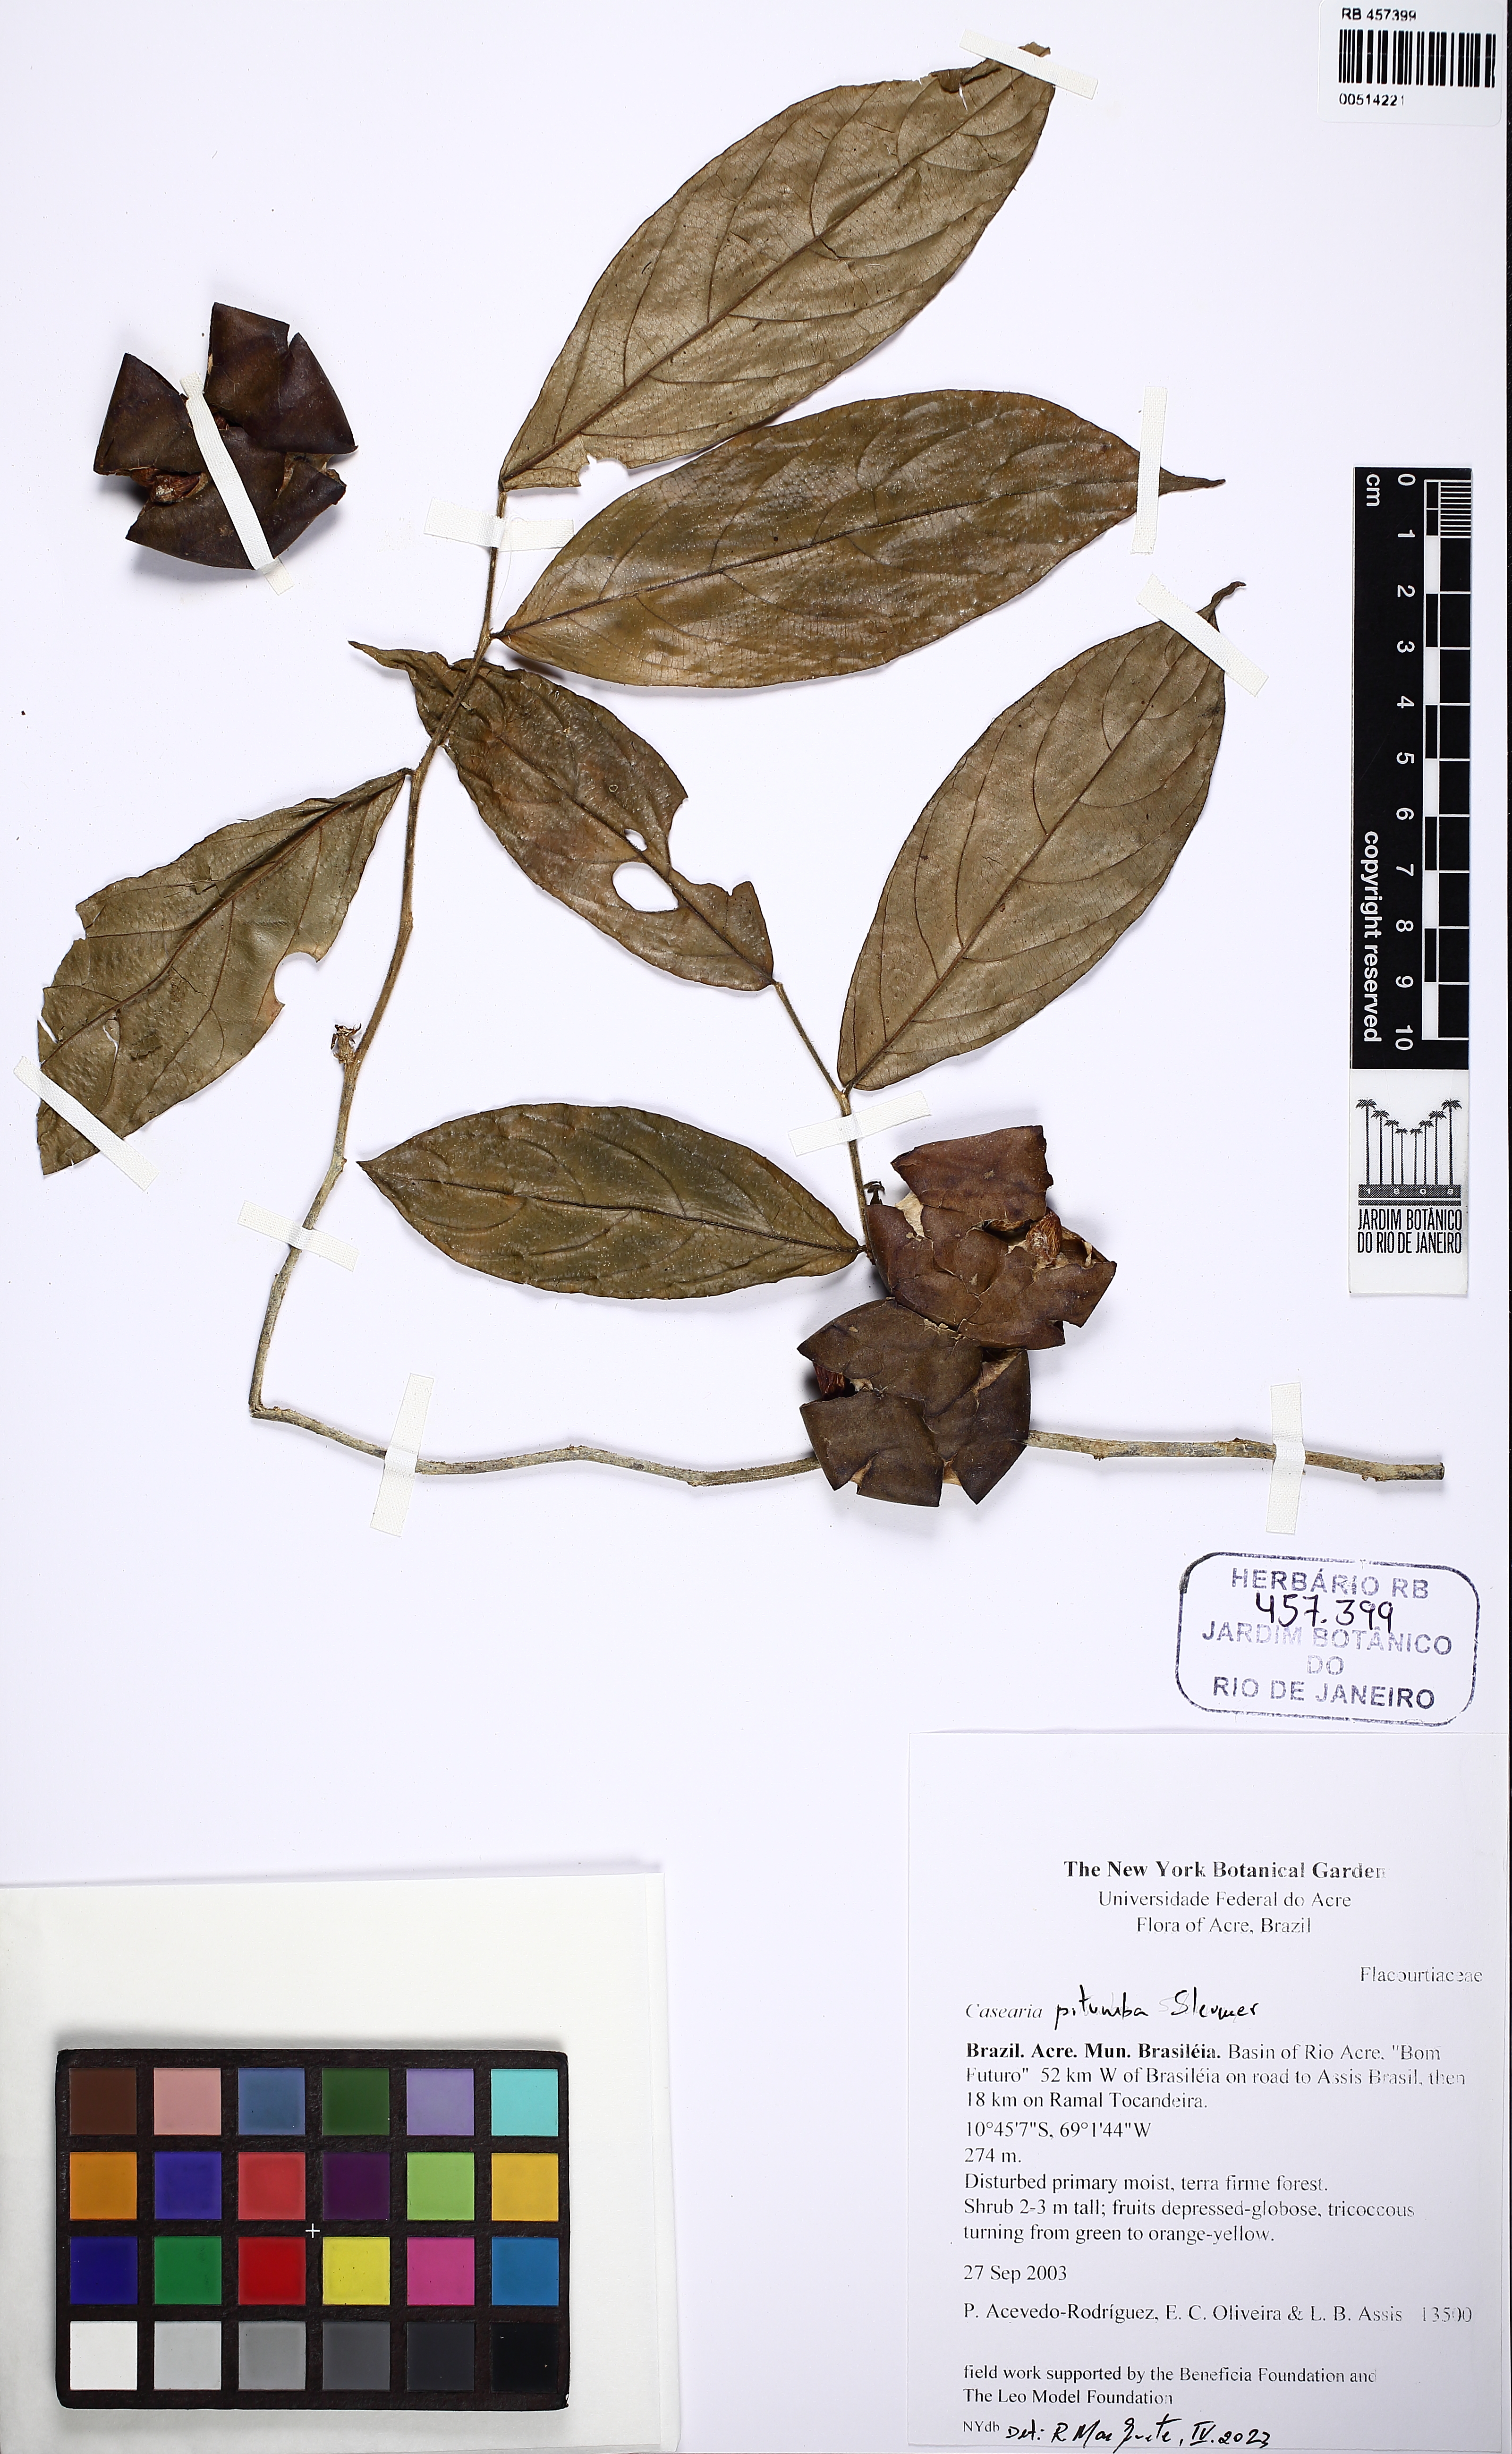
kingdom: Plantae
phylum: Tracheophyta
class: Magnoliopsida
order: Malpighiales
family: Salicaceae
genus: Casearia
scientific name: Casearia pitumba
